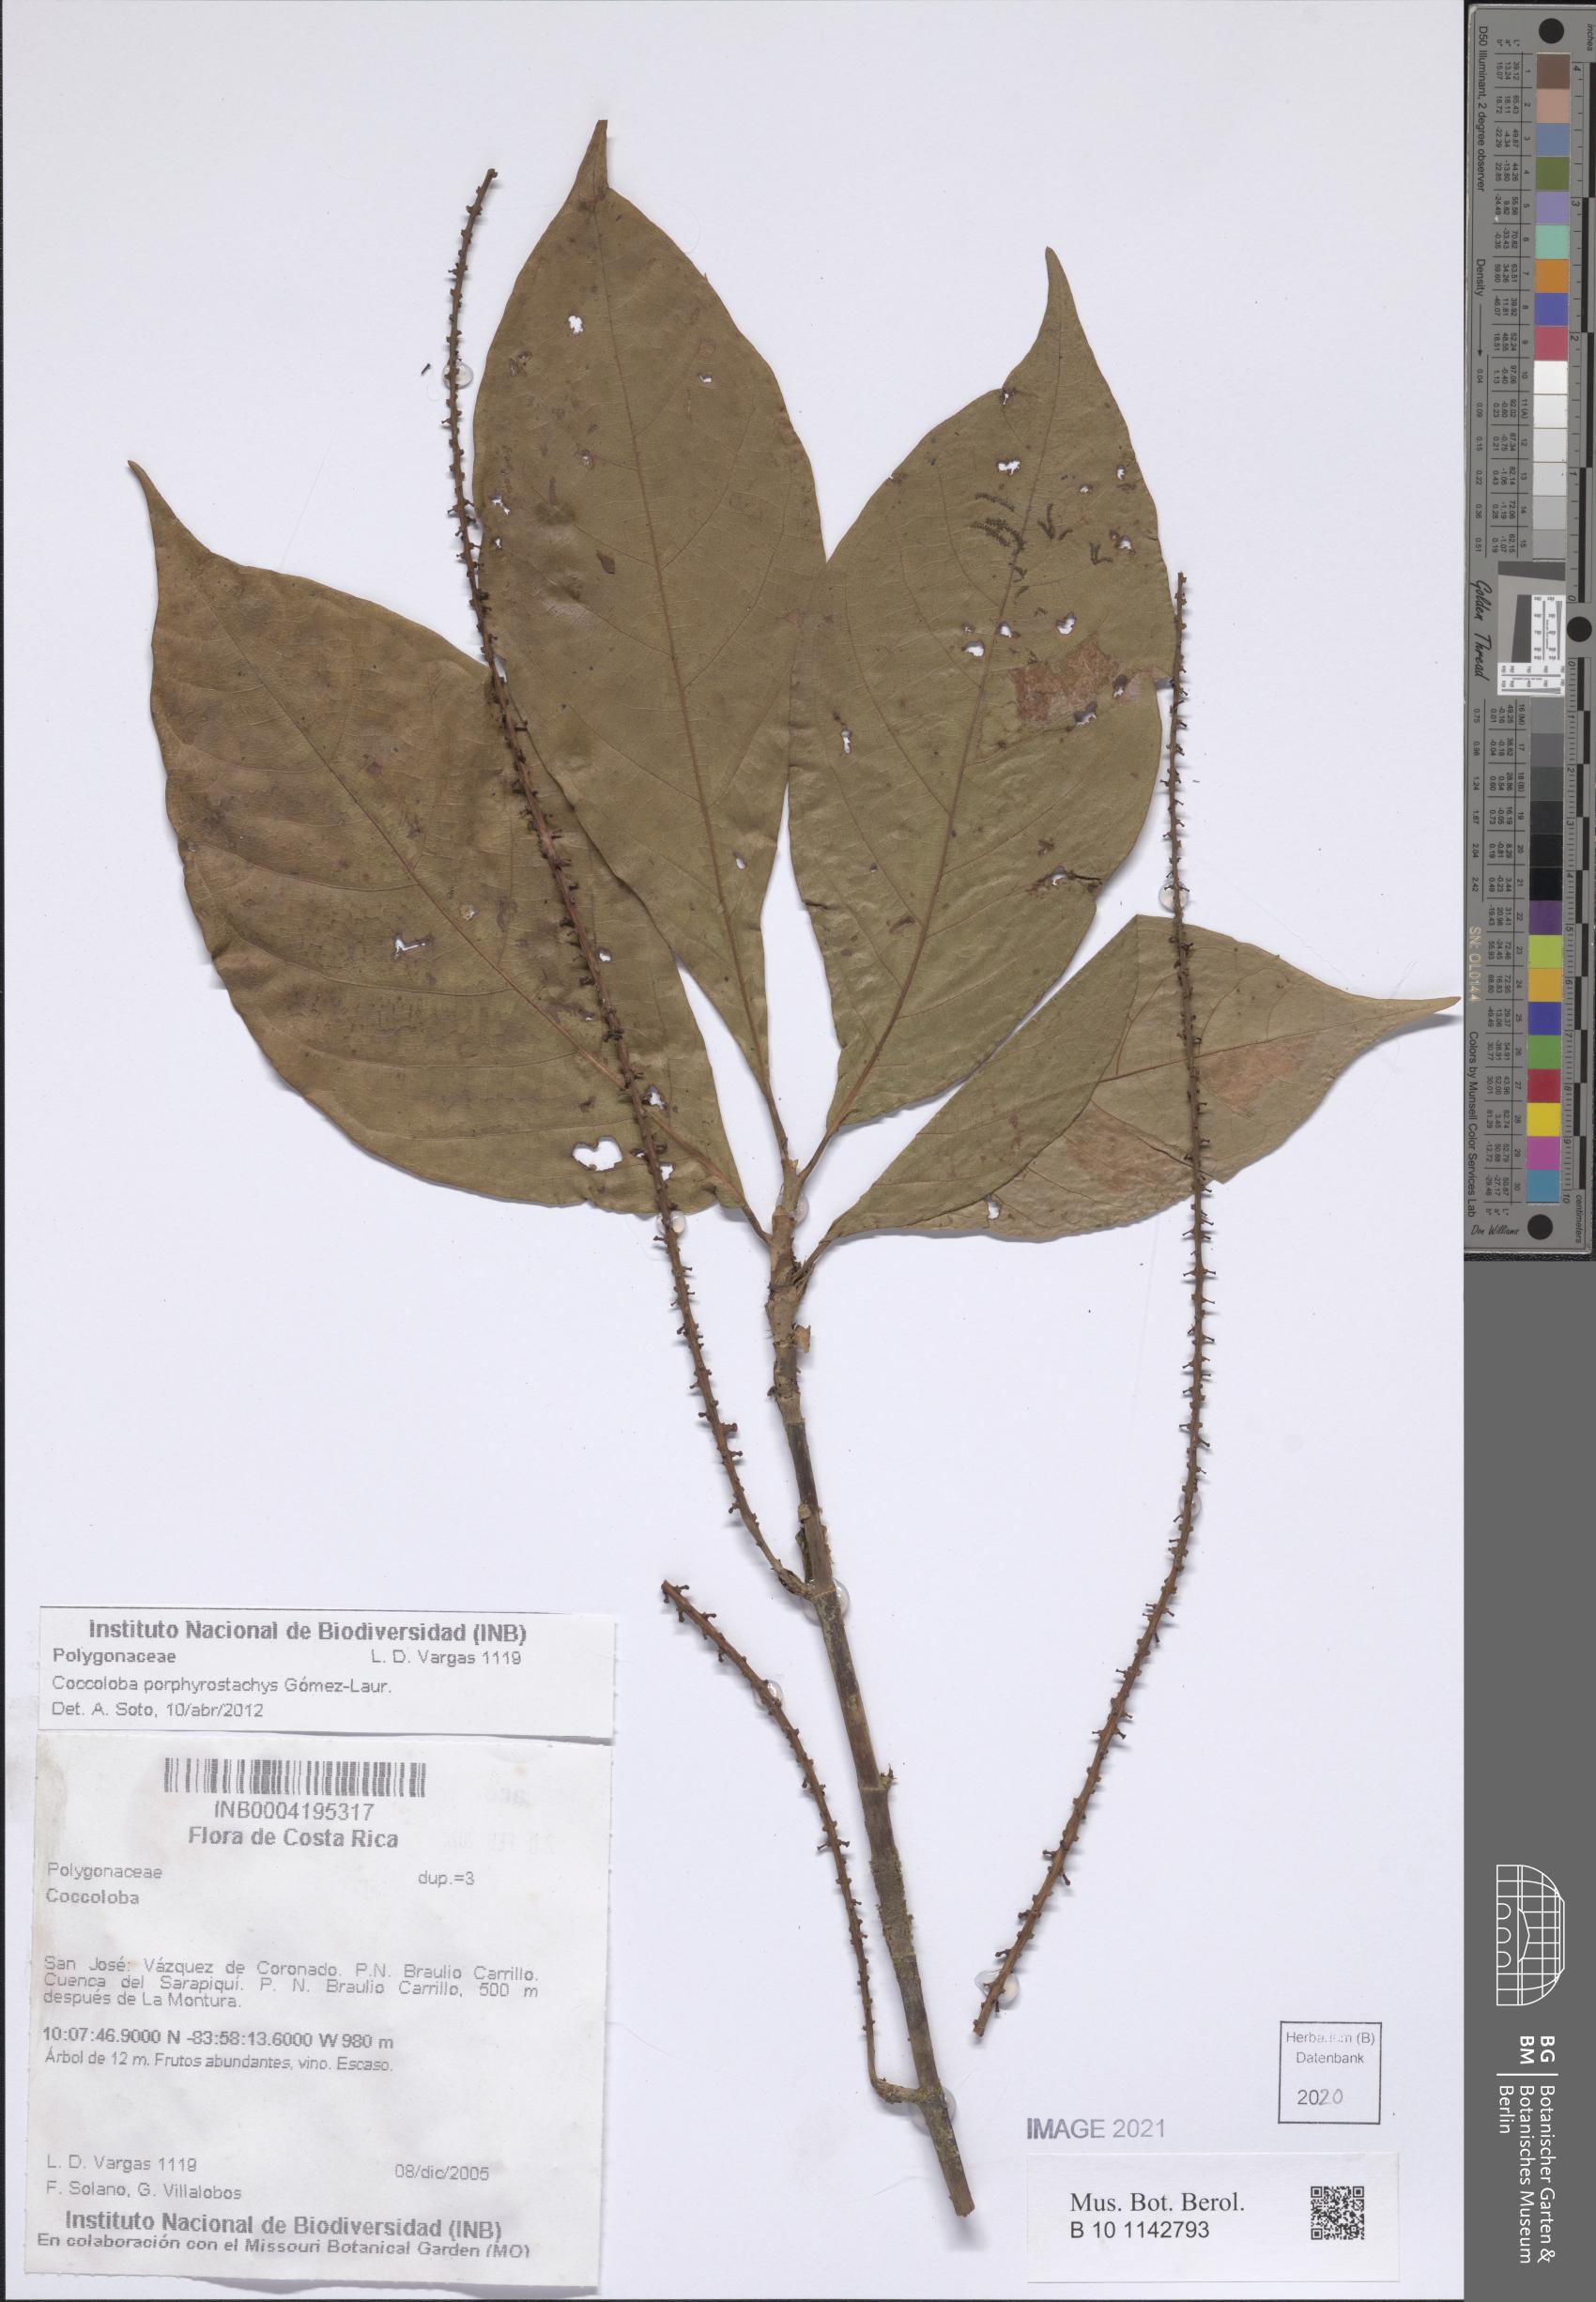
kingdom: Plantae
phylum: Tracheophyta
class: Magnoliopsida
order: Caryophyllales
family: Polygonaceae
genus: Coccoloba
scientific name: Coccoloba porphyrostachys
